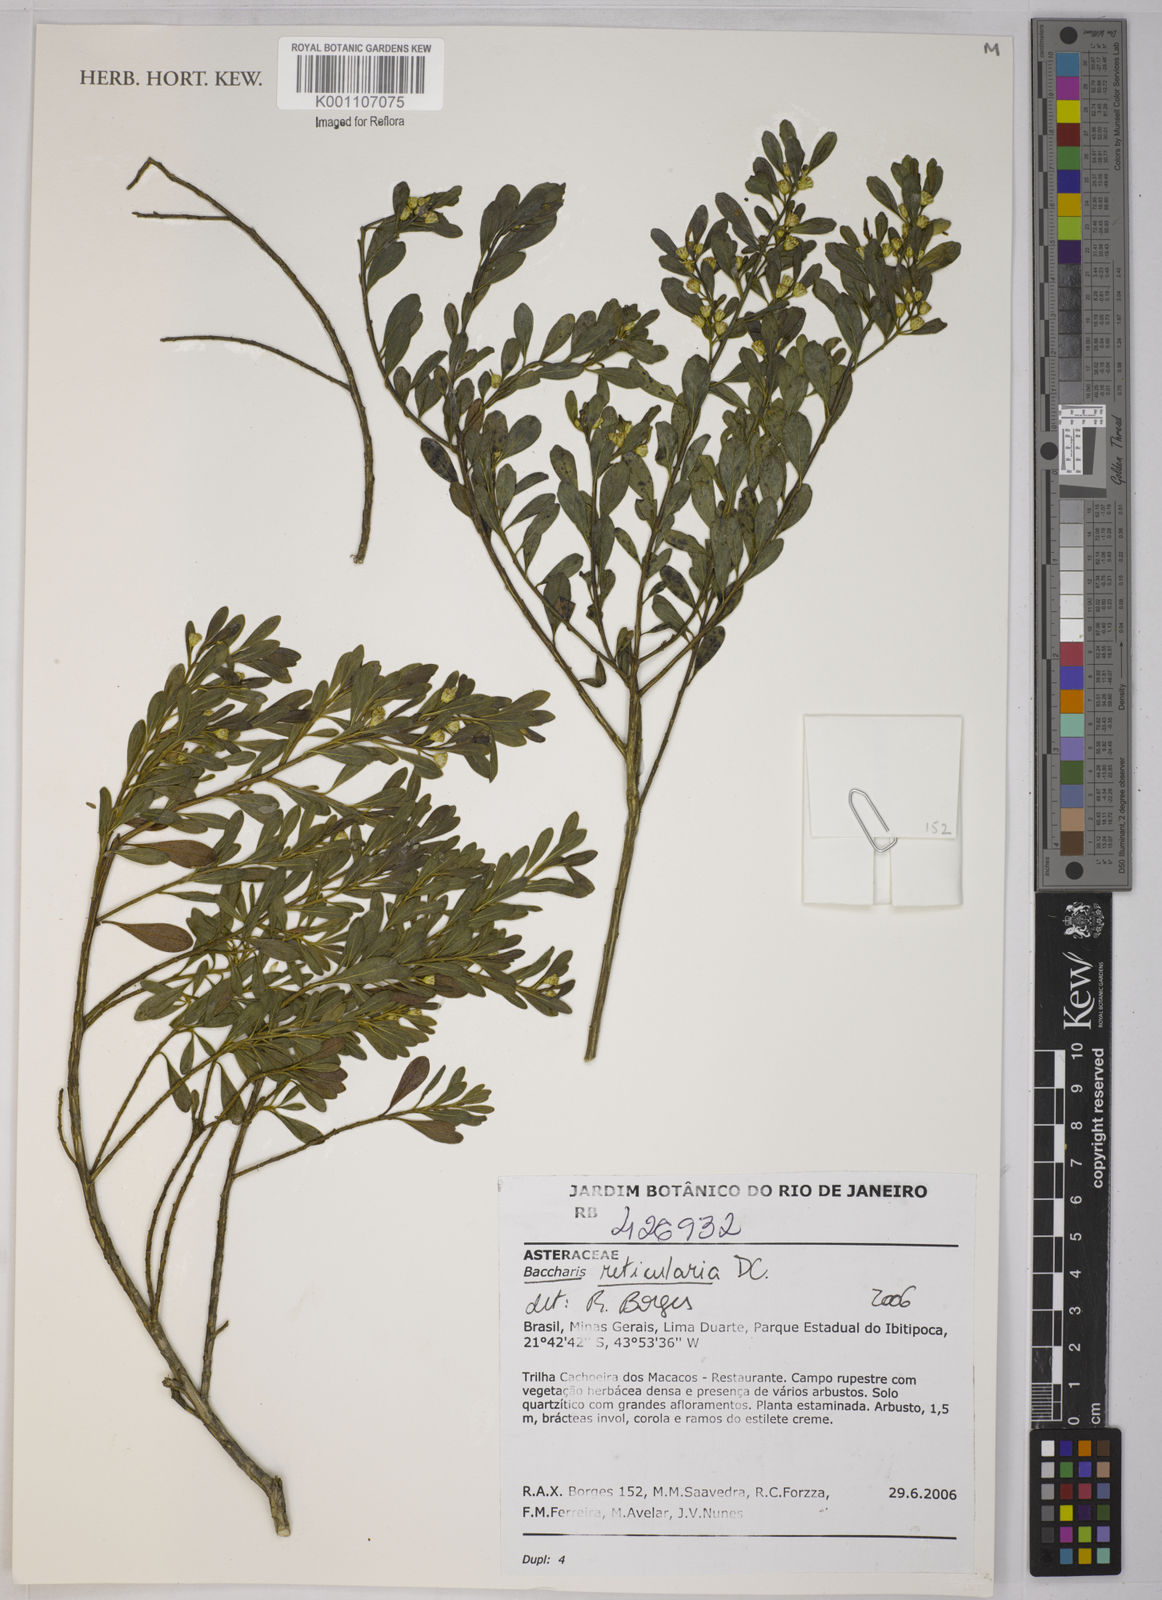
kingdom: Plantae
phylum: Tracheophyta
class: Magnoliopsida
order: Asterales
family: Asteraceae
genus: Baccharis
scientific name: Baccharis reticularia
